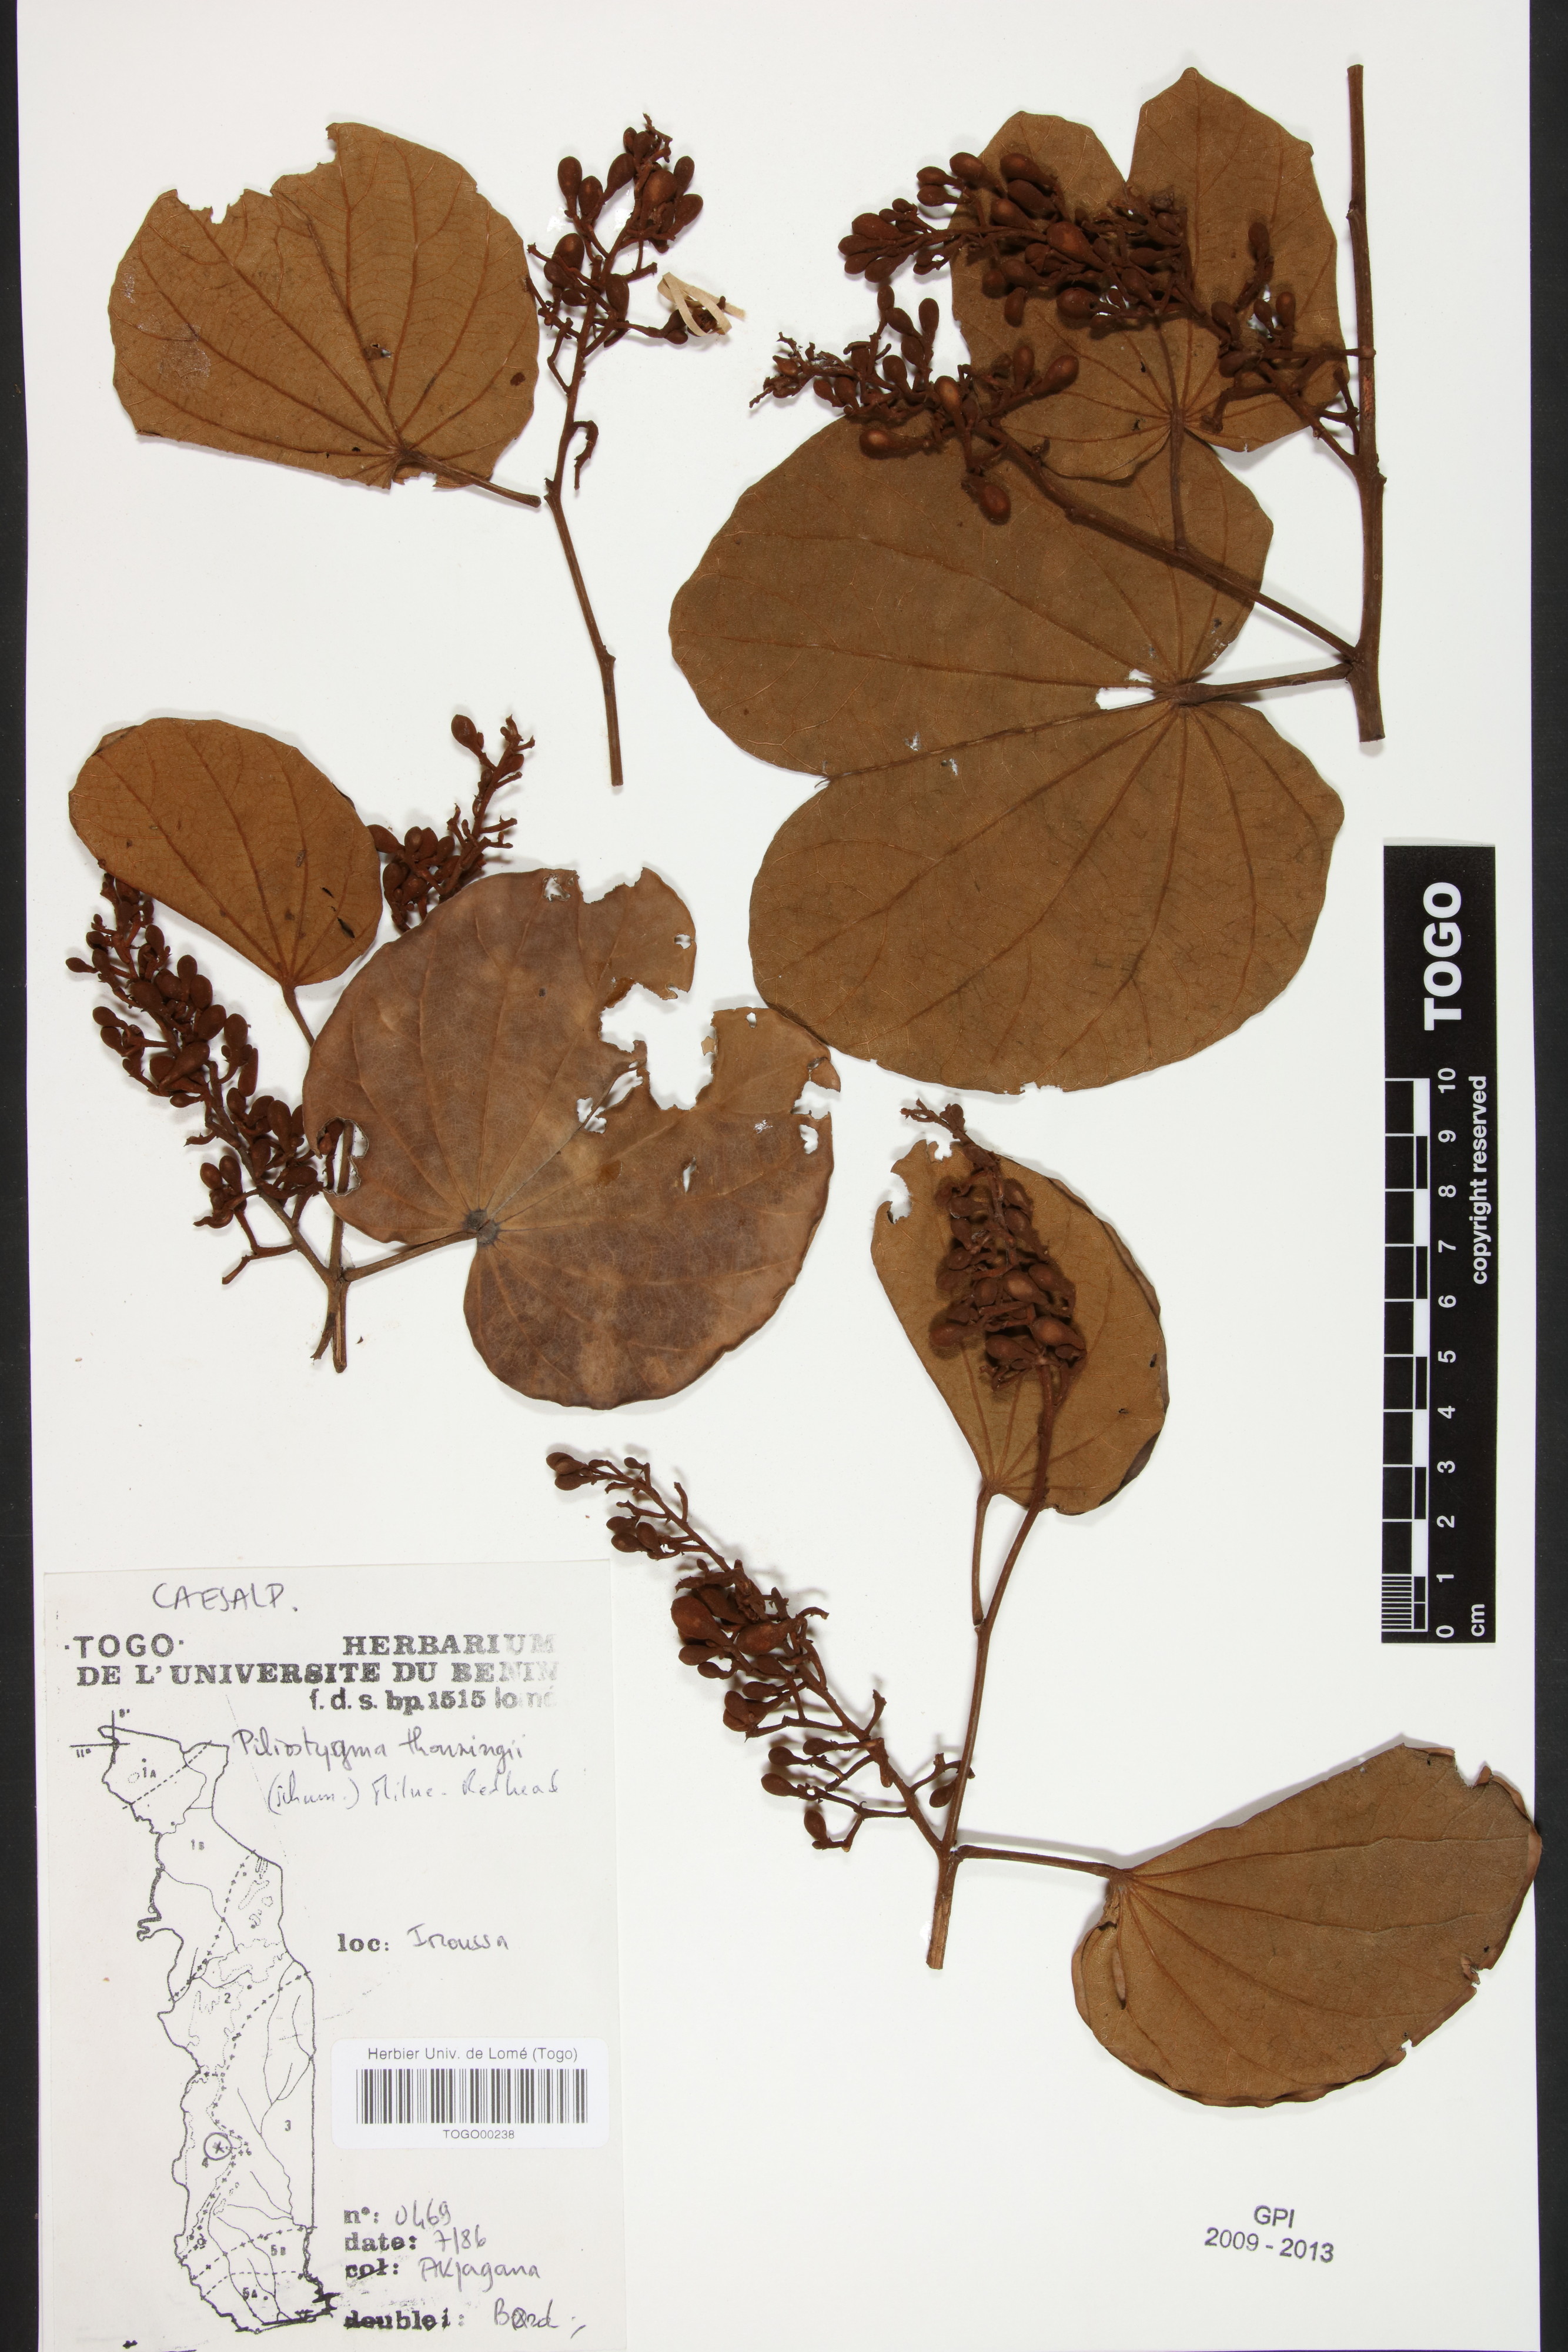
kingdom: Plantae
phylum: Tracheophyta
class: Magnoliopsida
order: Fabales
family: Fabaceae
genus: Piliostigma
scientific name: Piliostigma thonningii
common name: Kao
